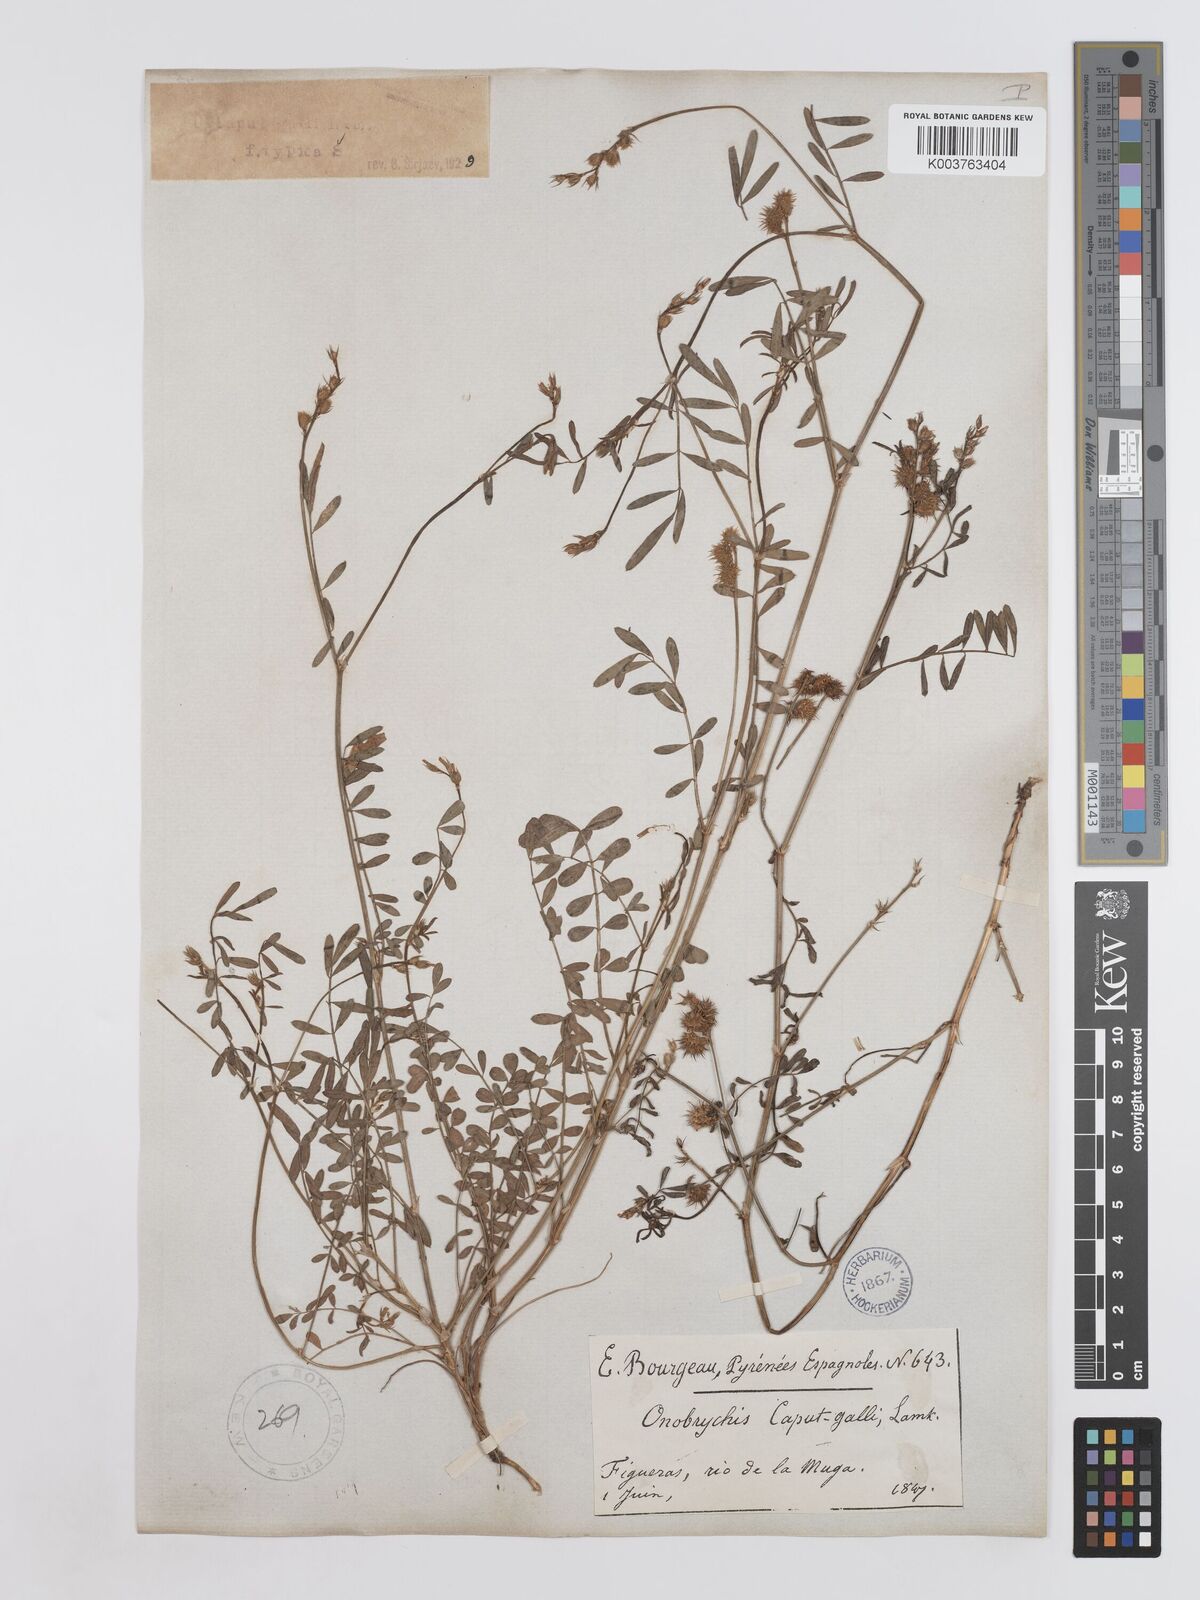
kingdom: Plantae
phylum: Tracheophyta
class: Magnoliopsida
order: Fabales
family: Fabaceae
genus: Onobrychis
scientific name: Onobrychis caput-galli
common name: Cockscomb sainfoin
